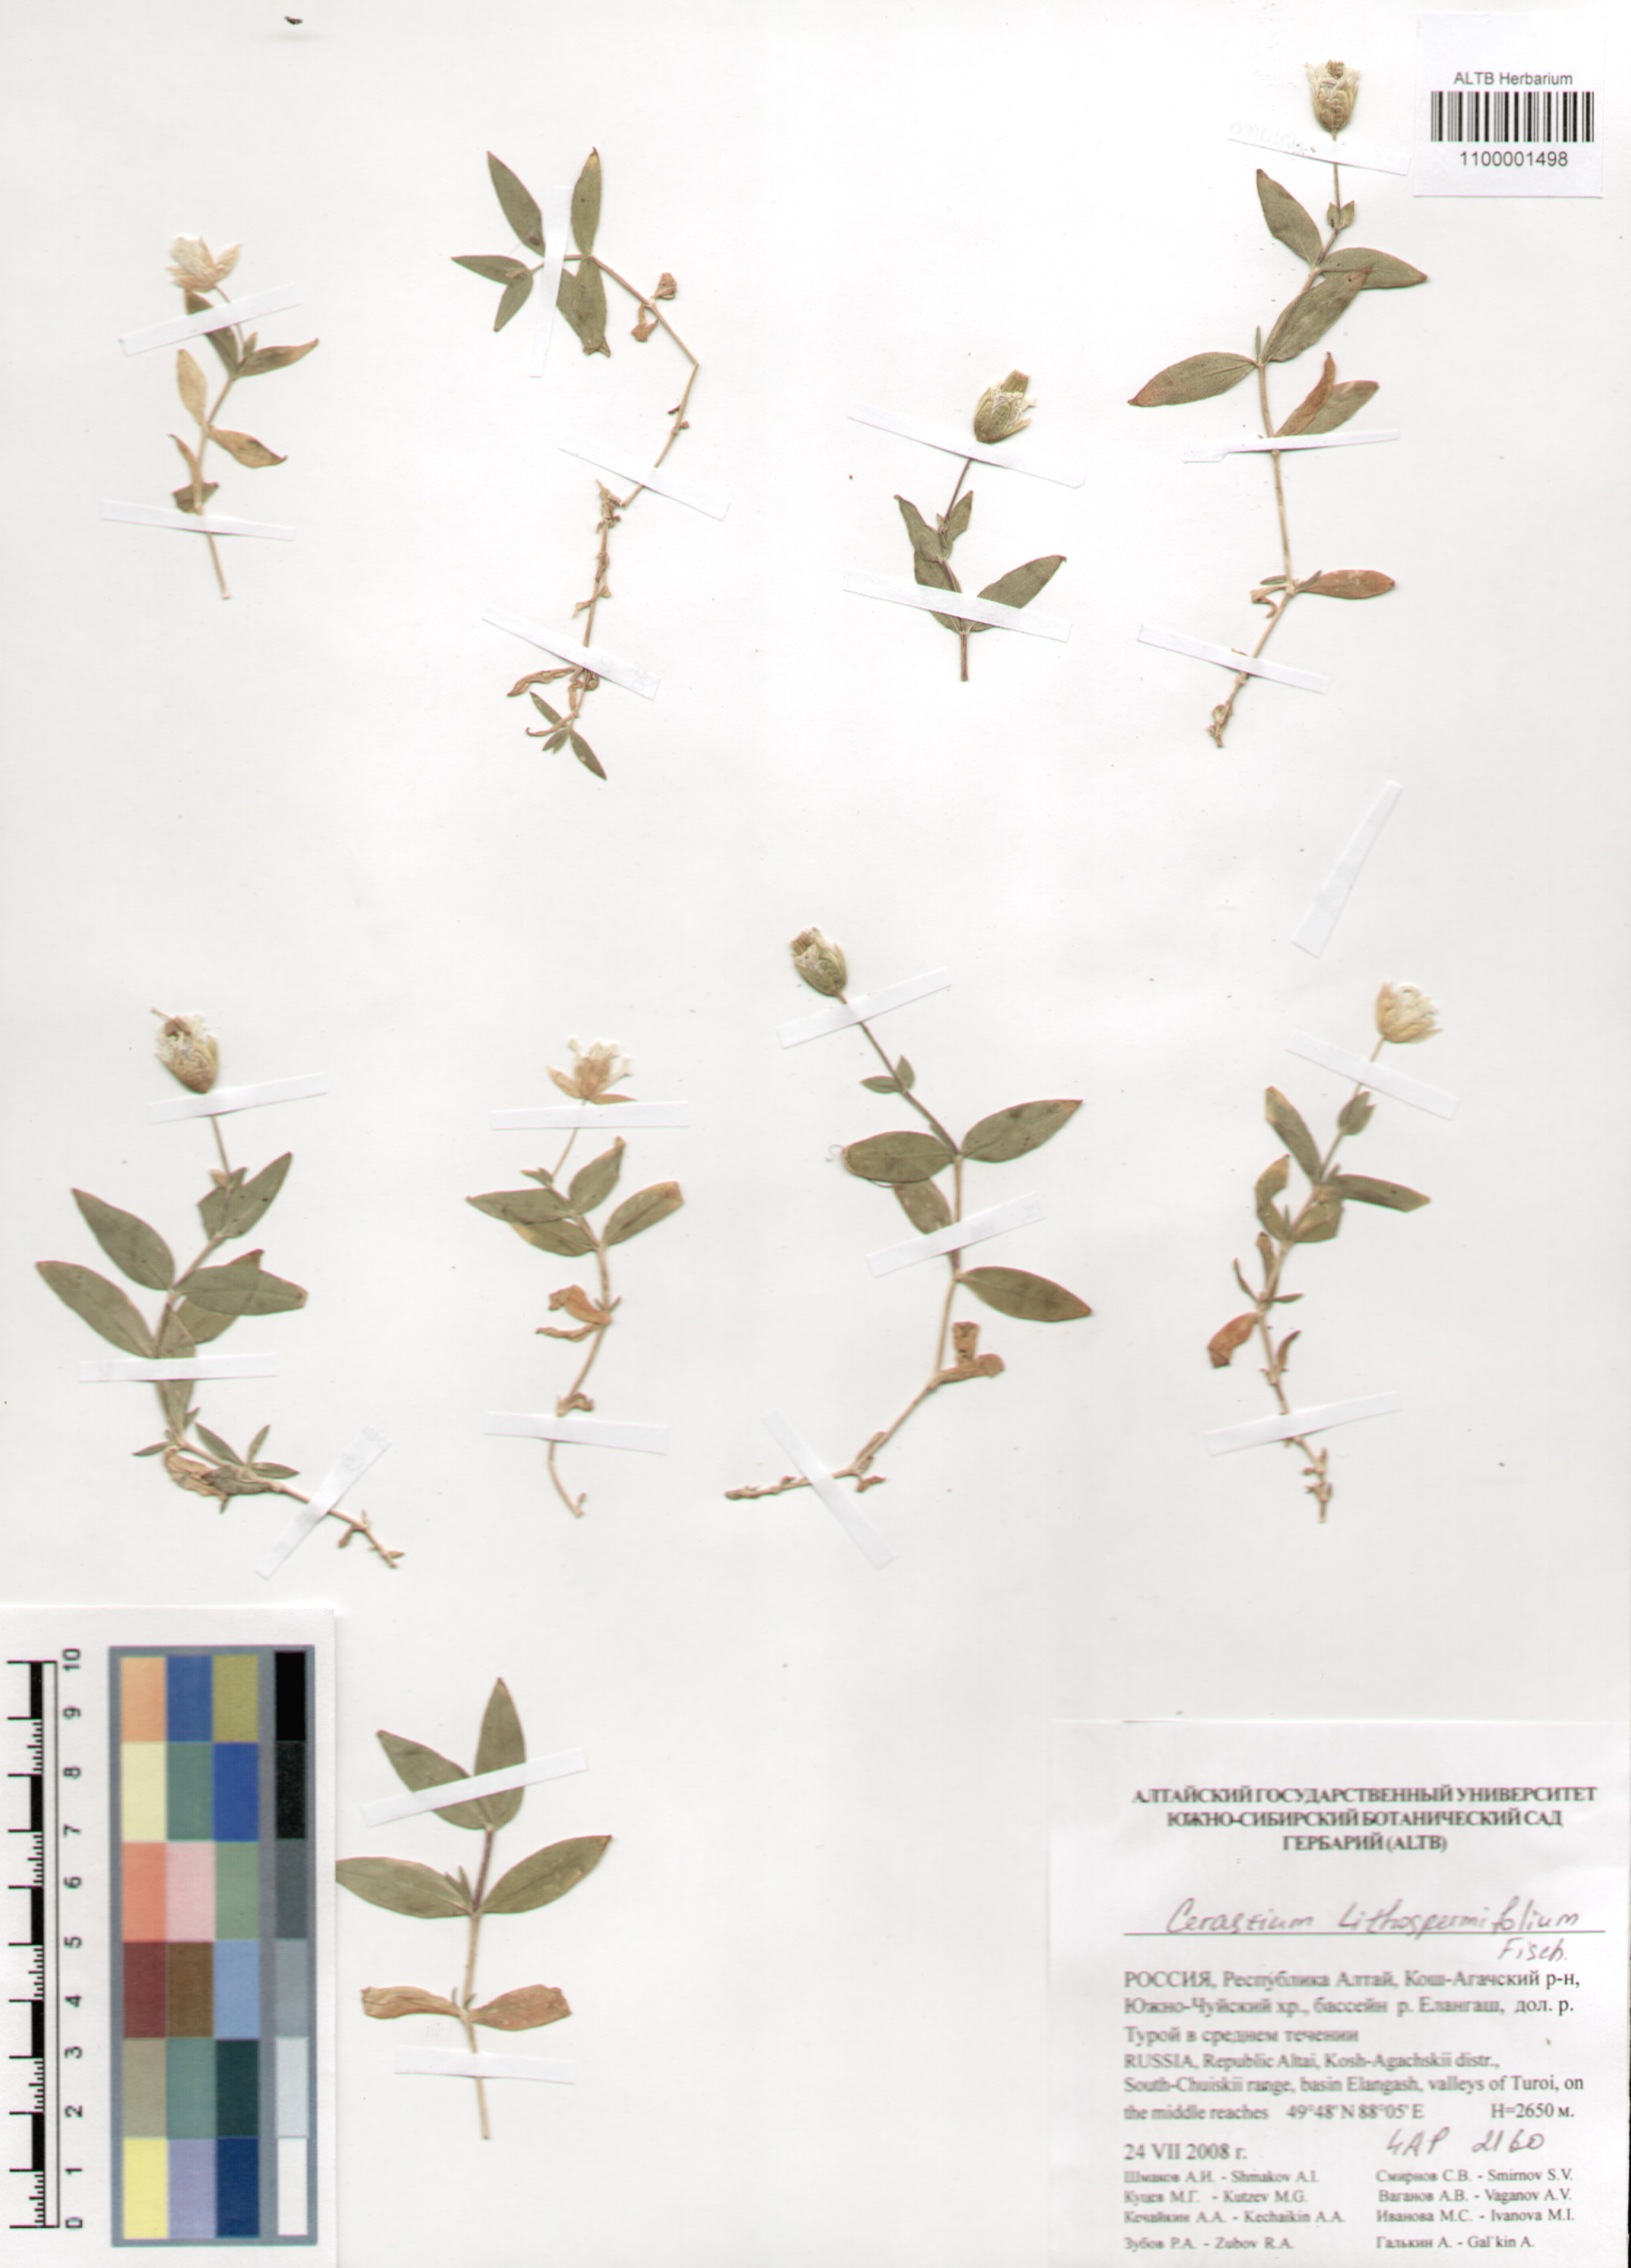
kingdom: Plantae
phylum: Tracheophyta
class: Magnoliopsida
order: Caryophyllales
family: Caryophyllaceae
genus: Cerastium
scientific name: Cerastium lithospermifolium
